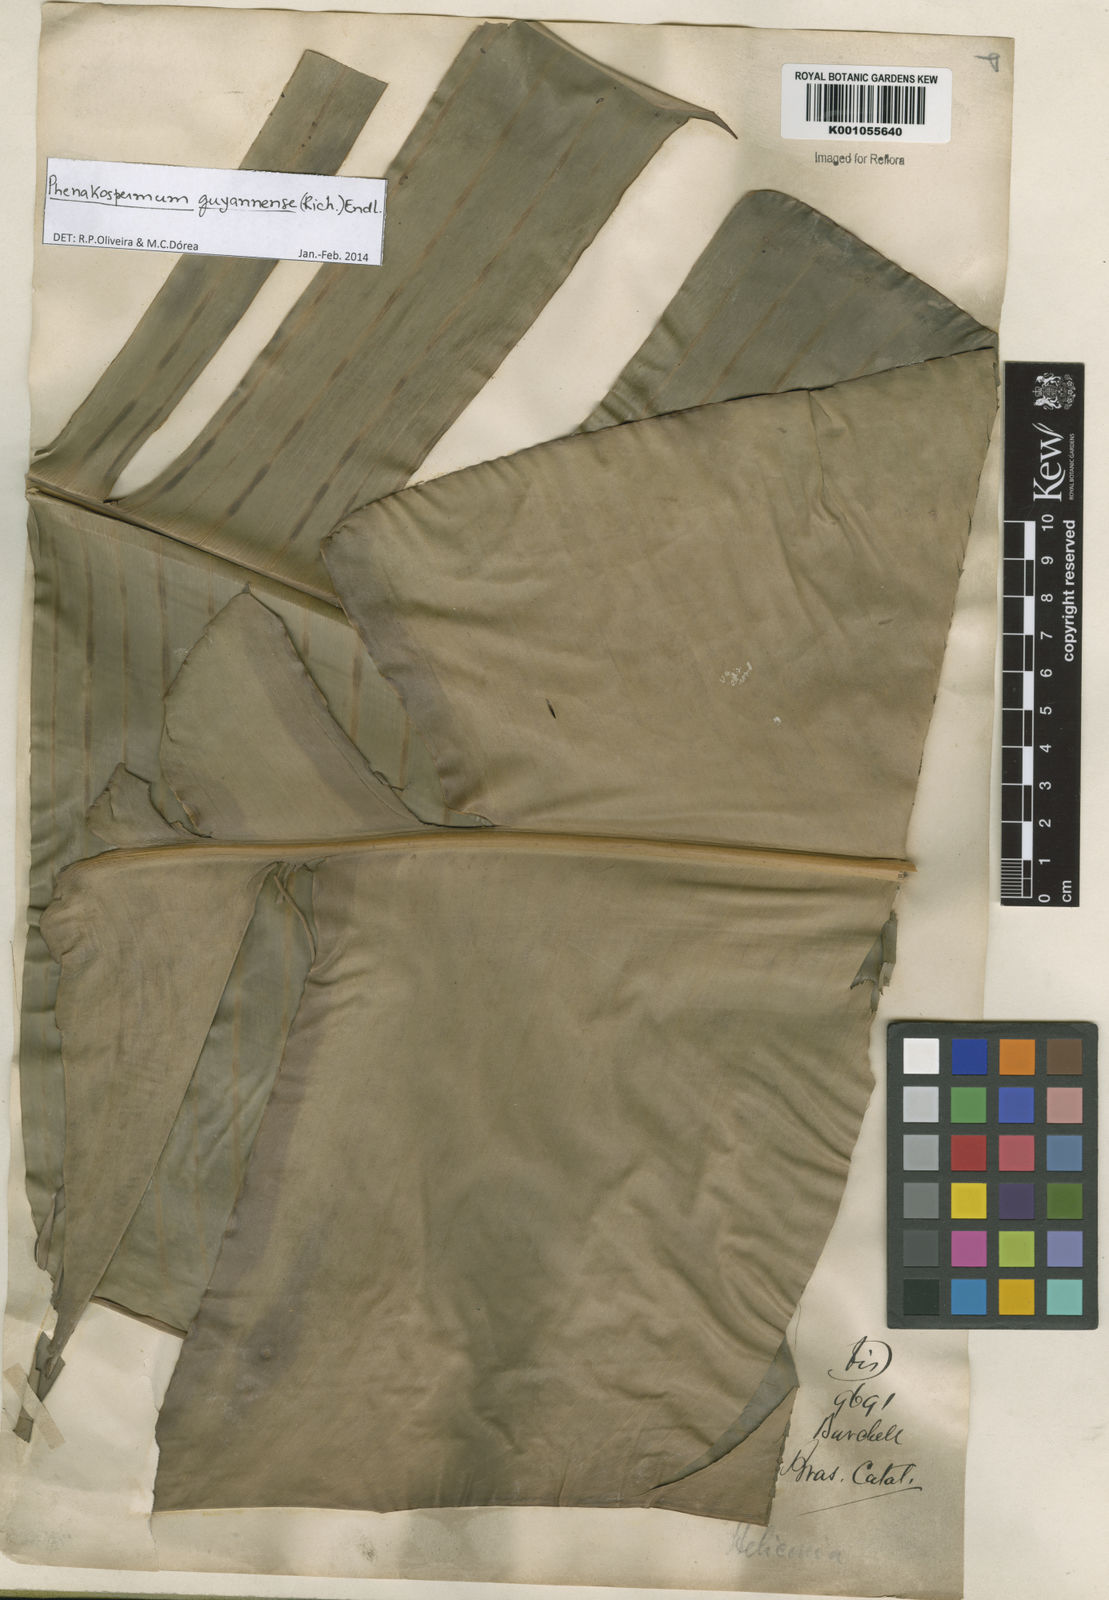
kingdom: Plantae
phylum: Tracheophyta
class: Liliopsida
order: Zingiberales
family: Strelitziaceae
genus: Phenakospermum
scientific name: Phenakospermum
